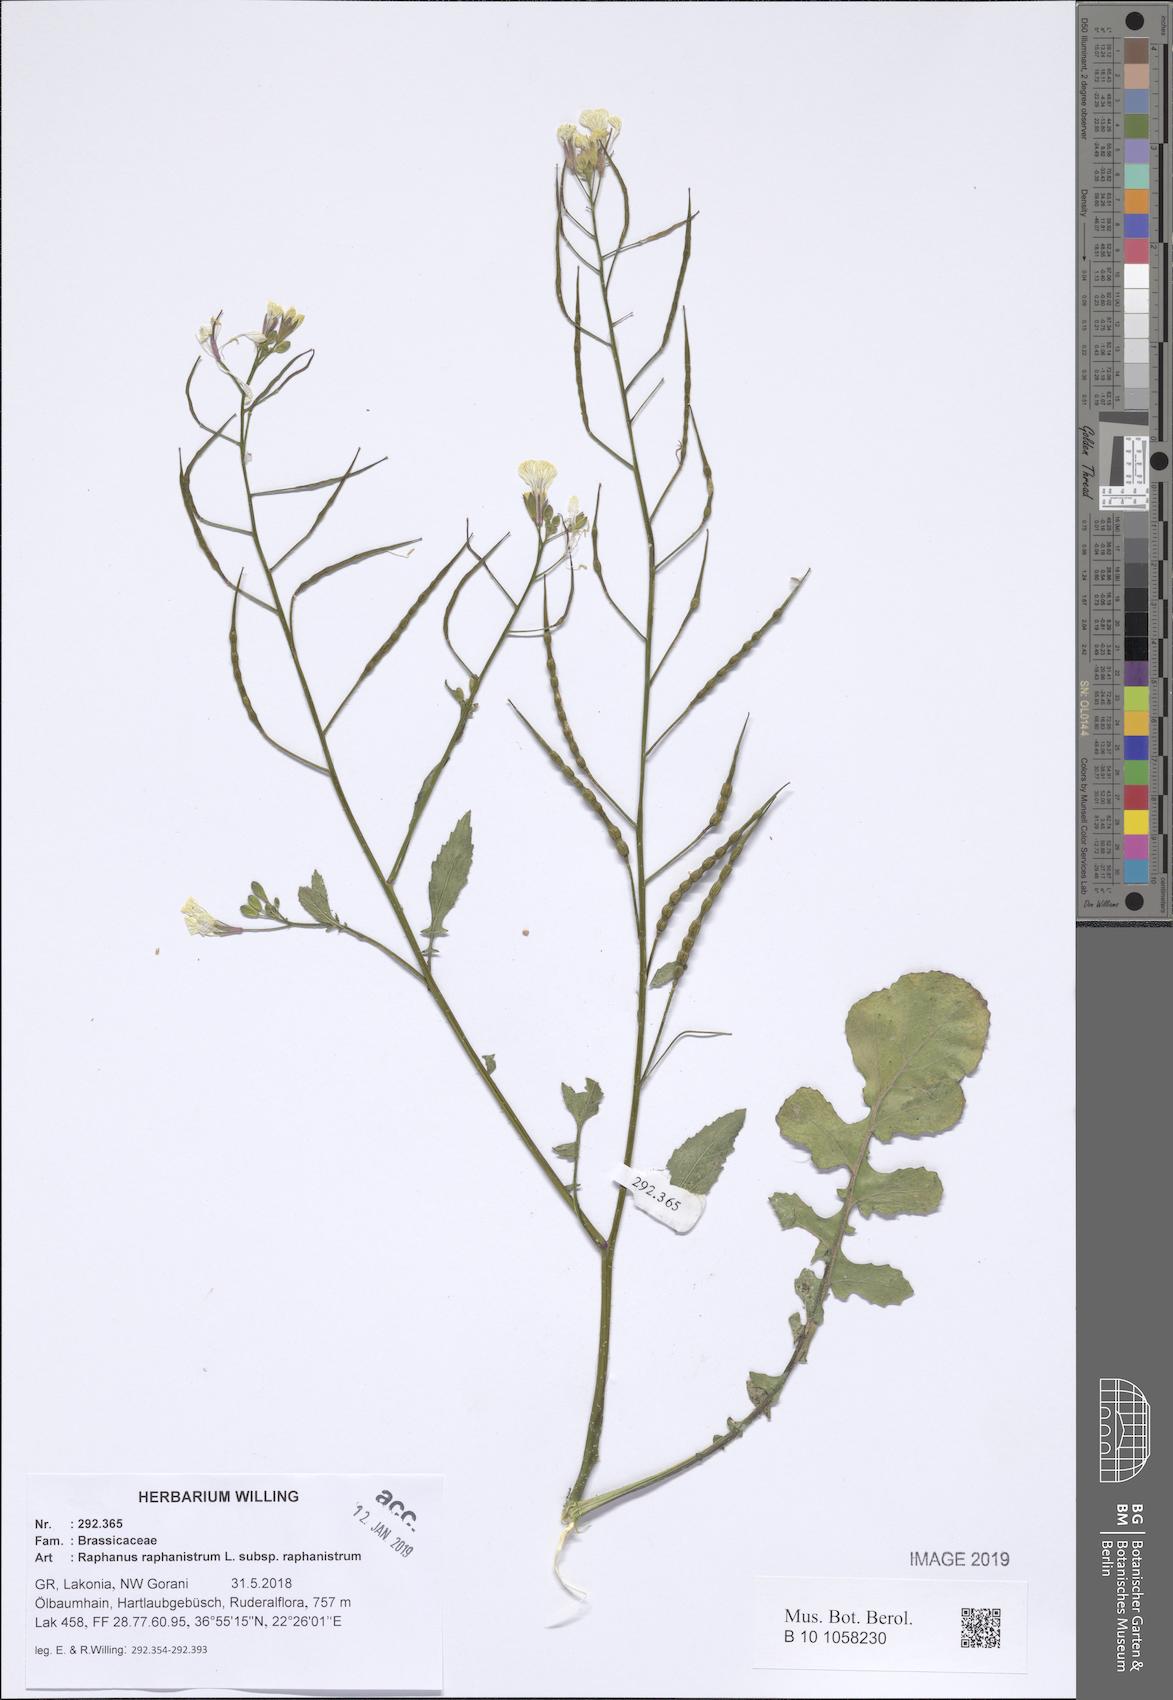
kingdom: Plantae
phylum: Tracheophyta
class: Magnoliopsida
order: Brassicales
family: Brassicaceae
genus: Raphanus
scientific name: Raphanus raphanistrum
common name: Wild radish
